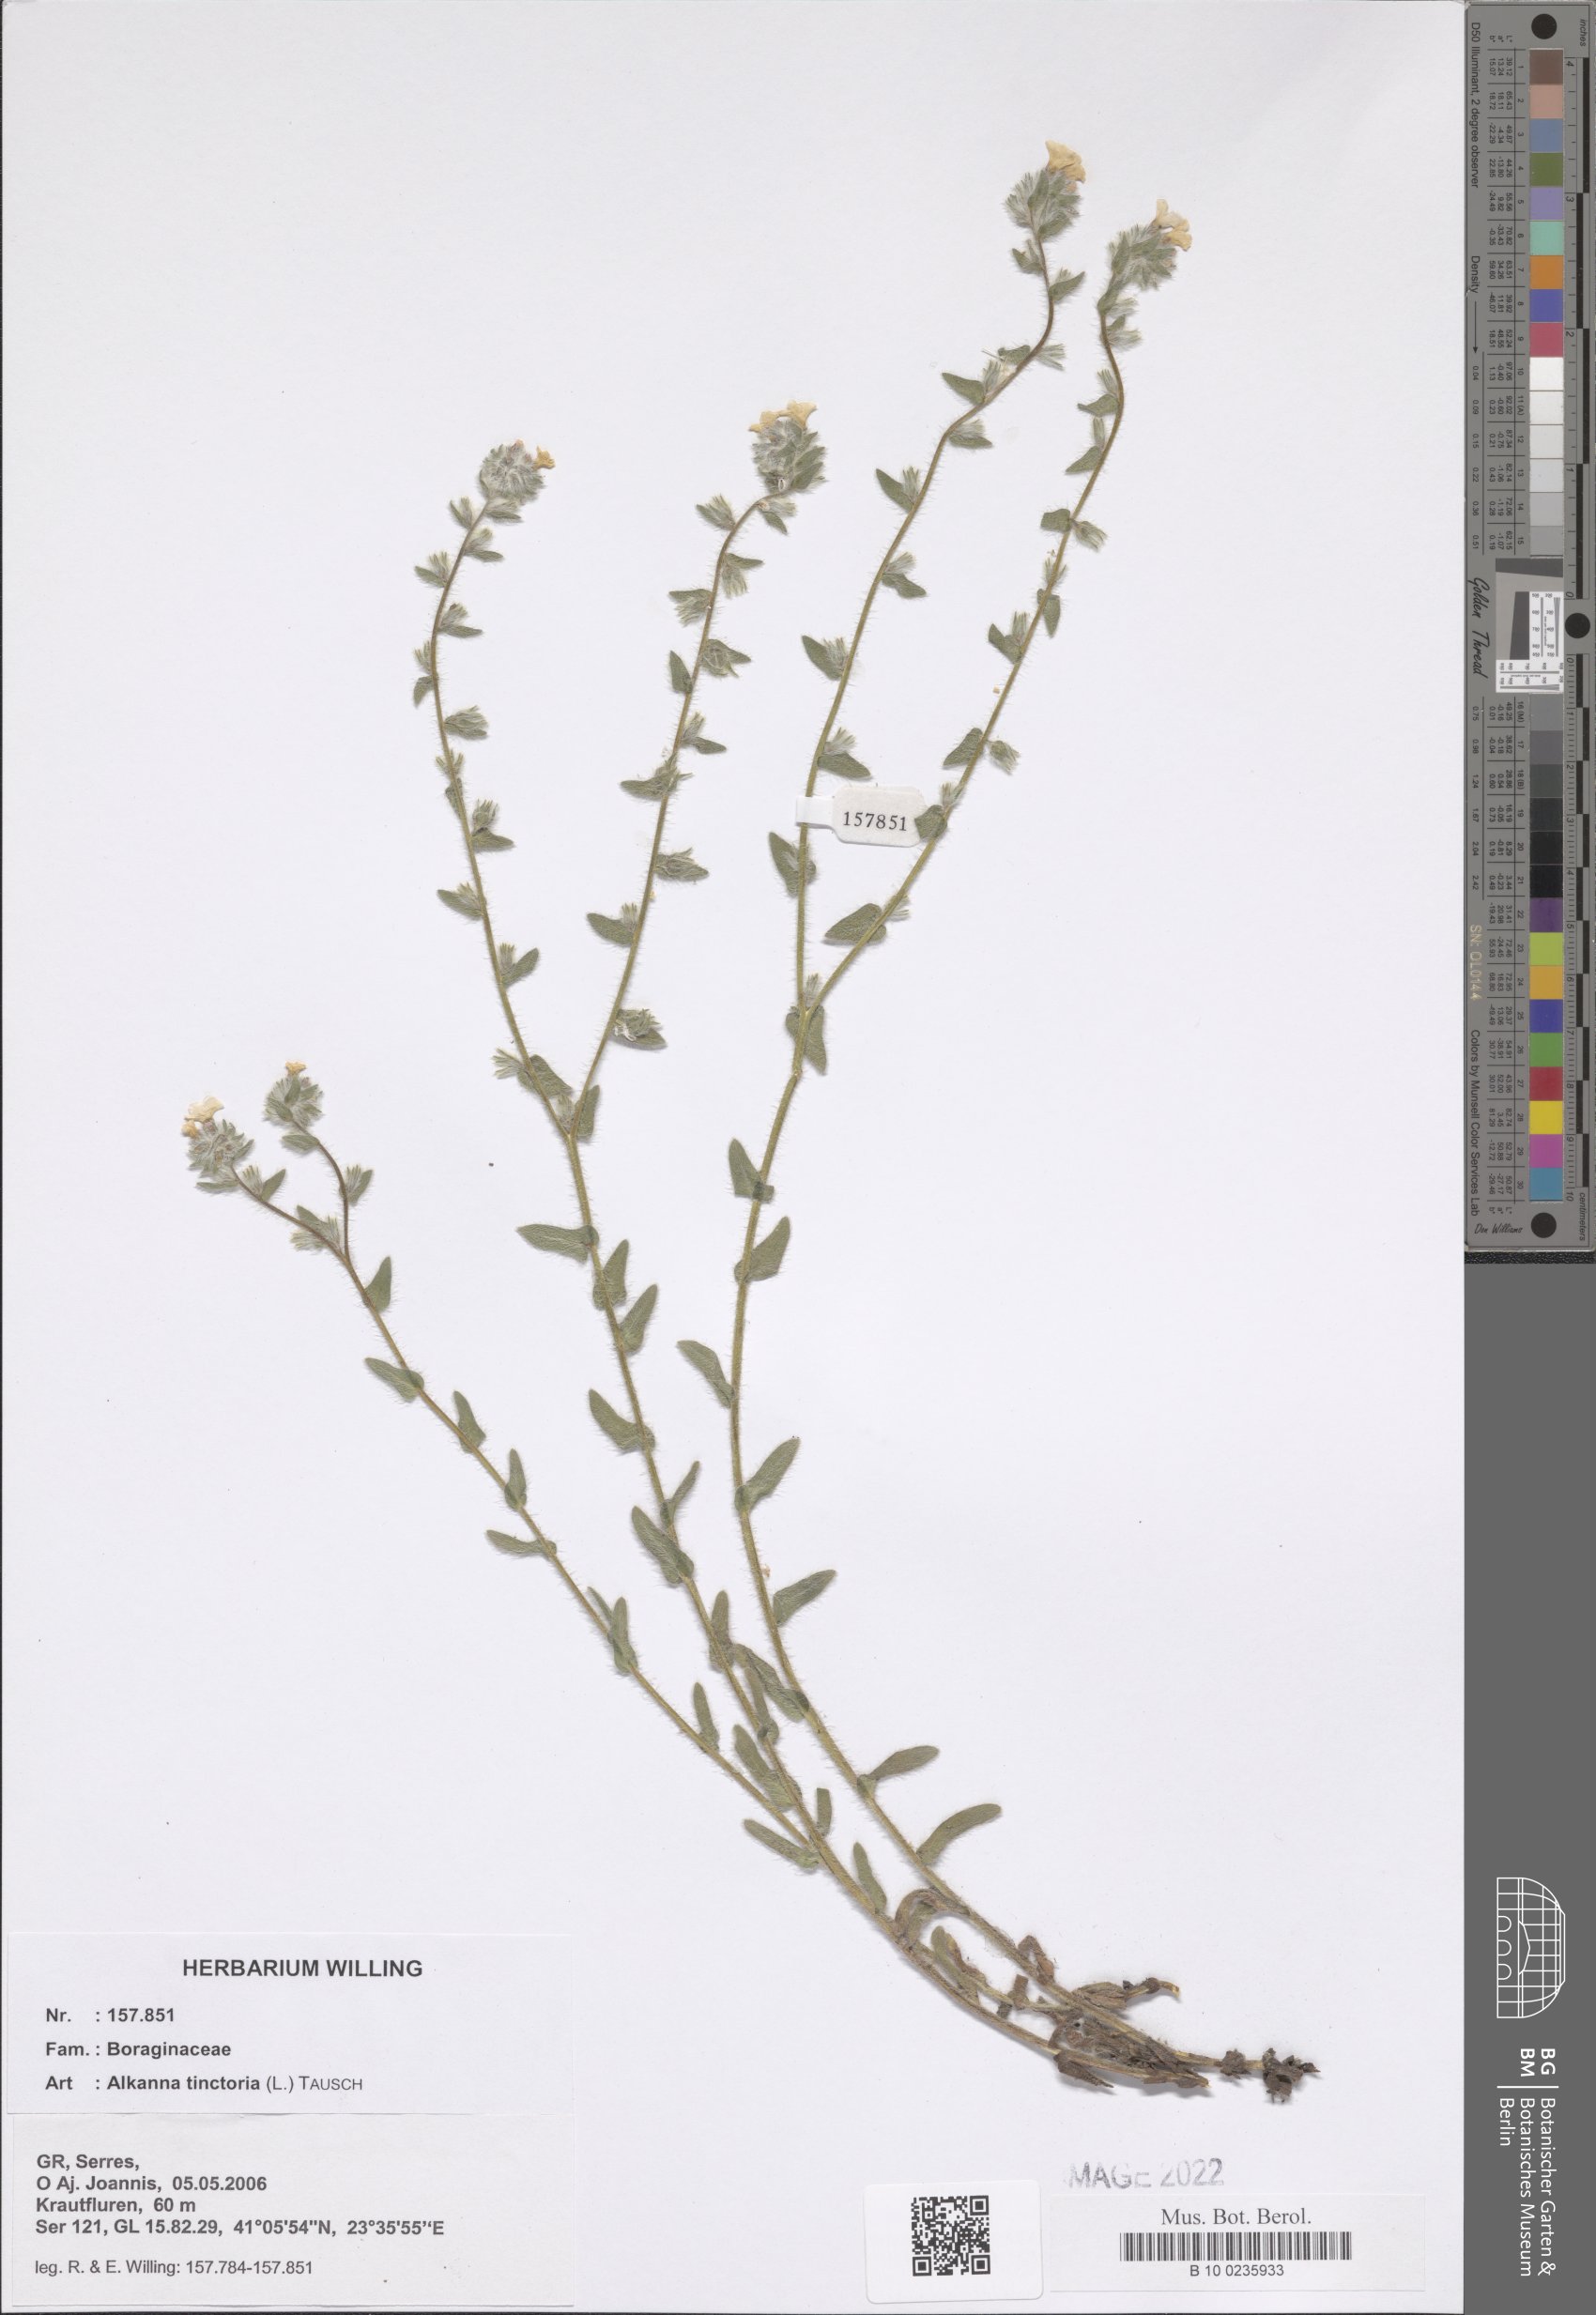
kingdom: Plantae
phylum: Tracheophyta
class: Magnoliopsida
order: Boraginales
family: Boraginaceae
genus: Alkanna
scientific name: Alkanna tinctoria
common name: Dyer's-alkanet
